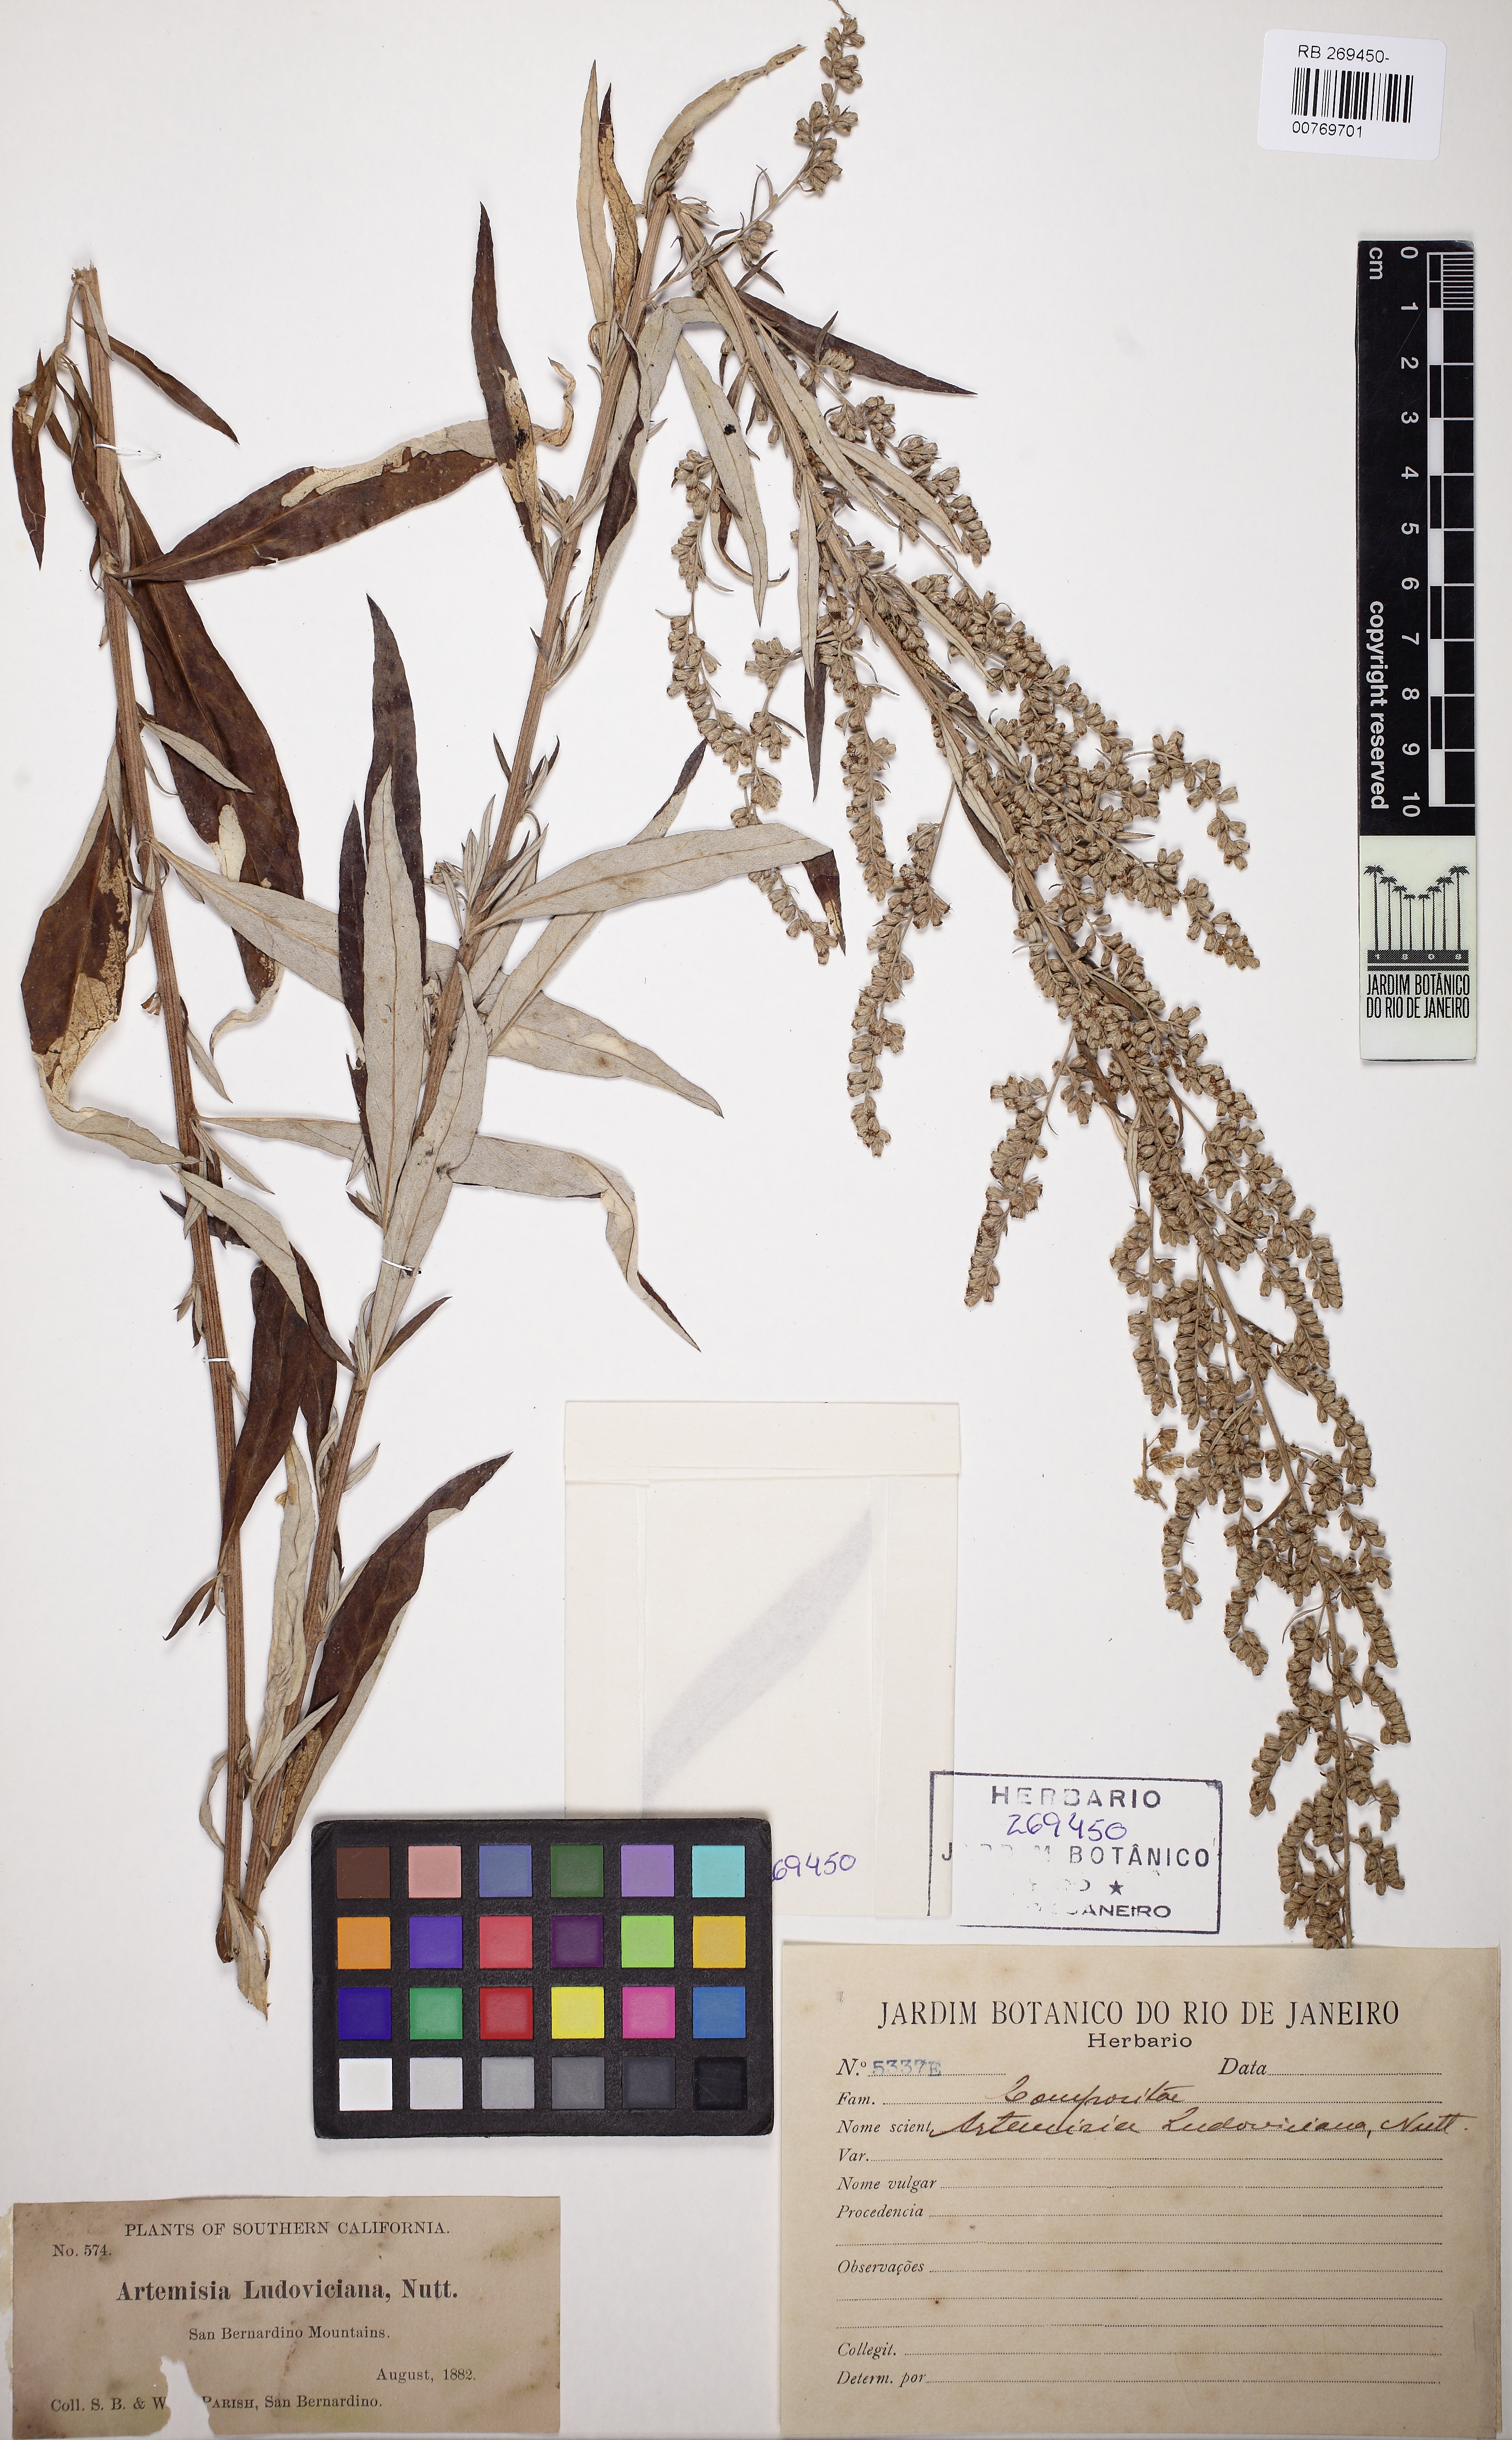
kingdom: Plantae
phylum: Tracheophyta
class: Magnoliopsida
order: Asterales
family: Asteraceae
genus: Artemisia
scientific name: Artemisia ludoviciana
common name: Western mugwort
